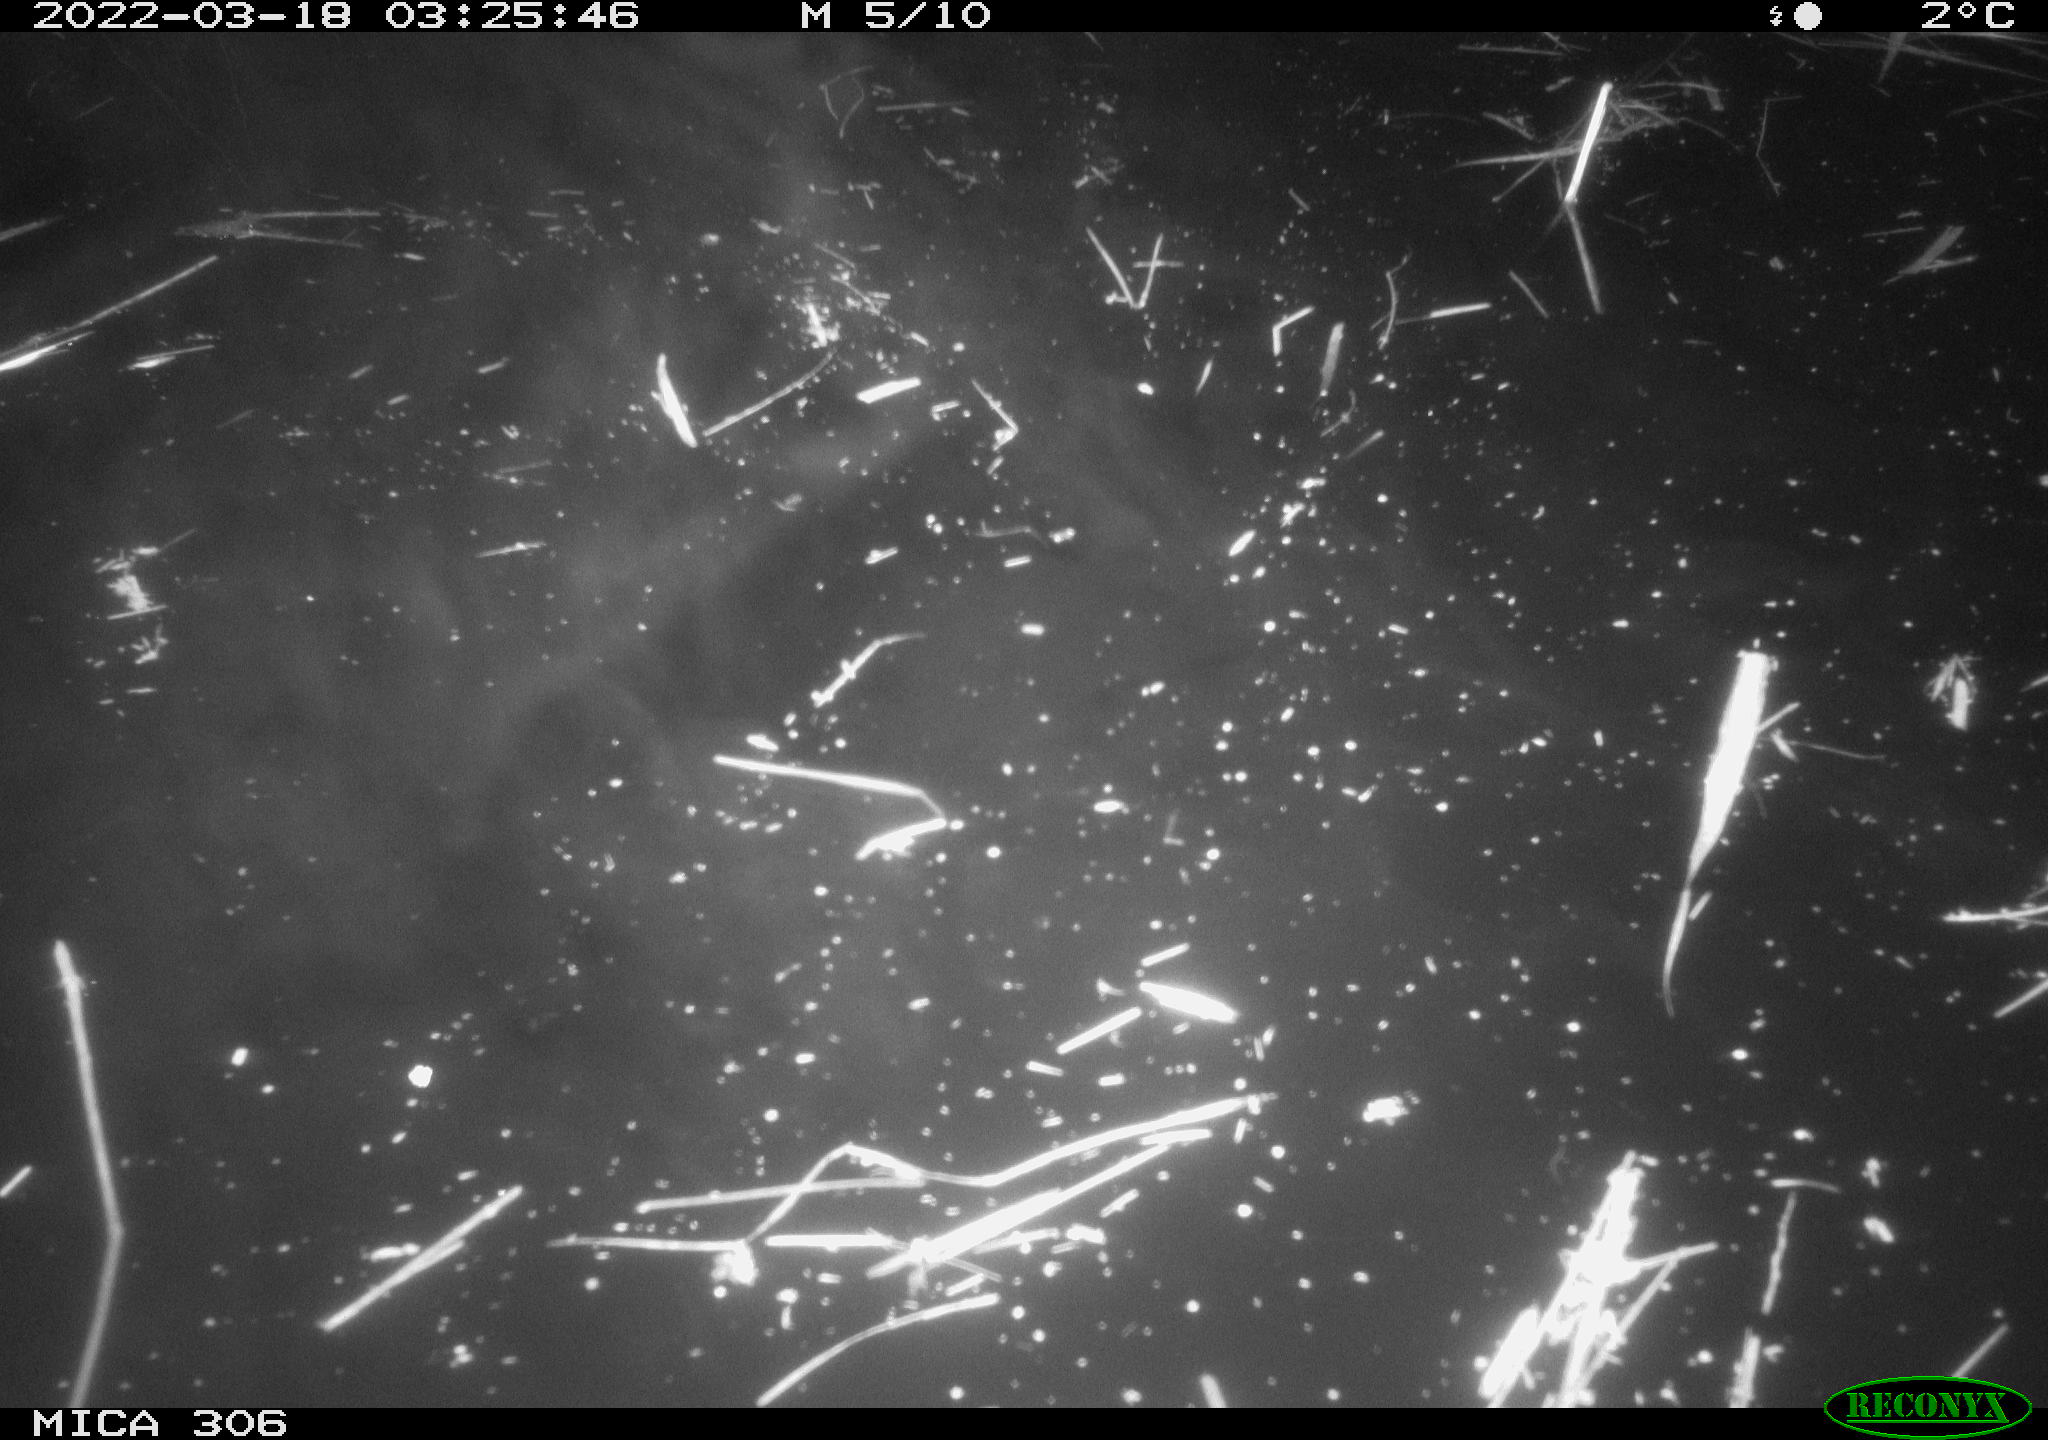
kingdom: Animalia
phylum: Chordata
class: Aves
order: Gruiformes
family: Rallidae
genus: Gallinula
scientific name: Gallinula chloropus
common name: Common moorhen
